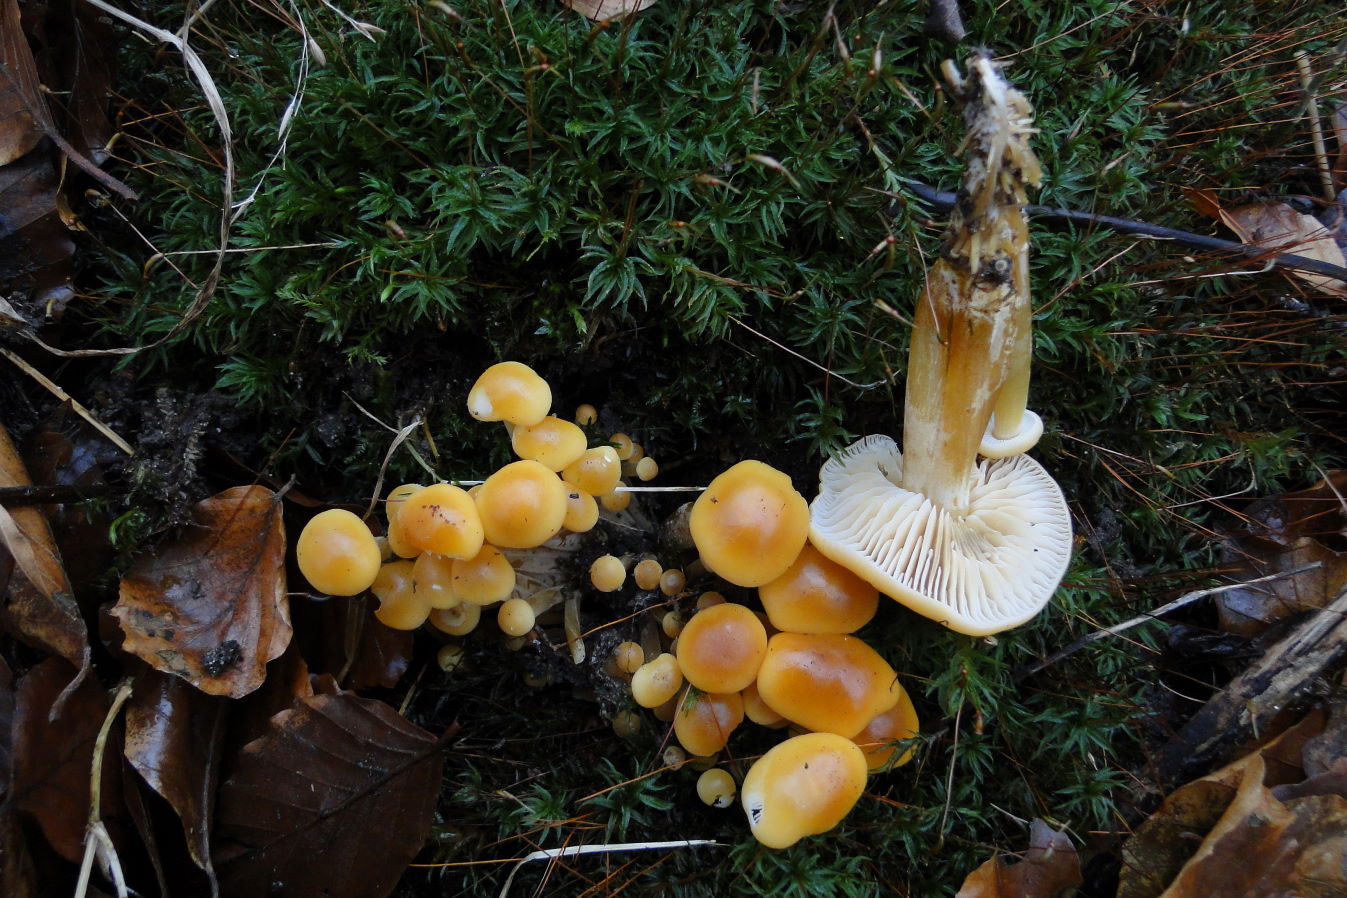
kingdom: Fungi
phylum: Basidiomycota
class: Agaricomycetes
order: Agaricales
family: Physalacriaceae
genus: Flammulina
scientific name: Flammulina velutipes
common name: gul fløjlsfod
